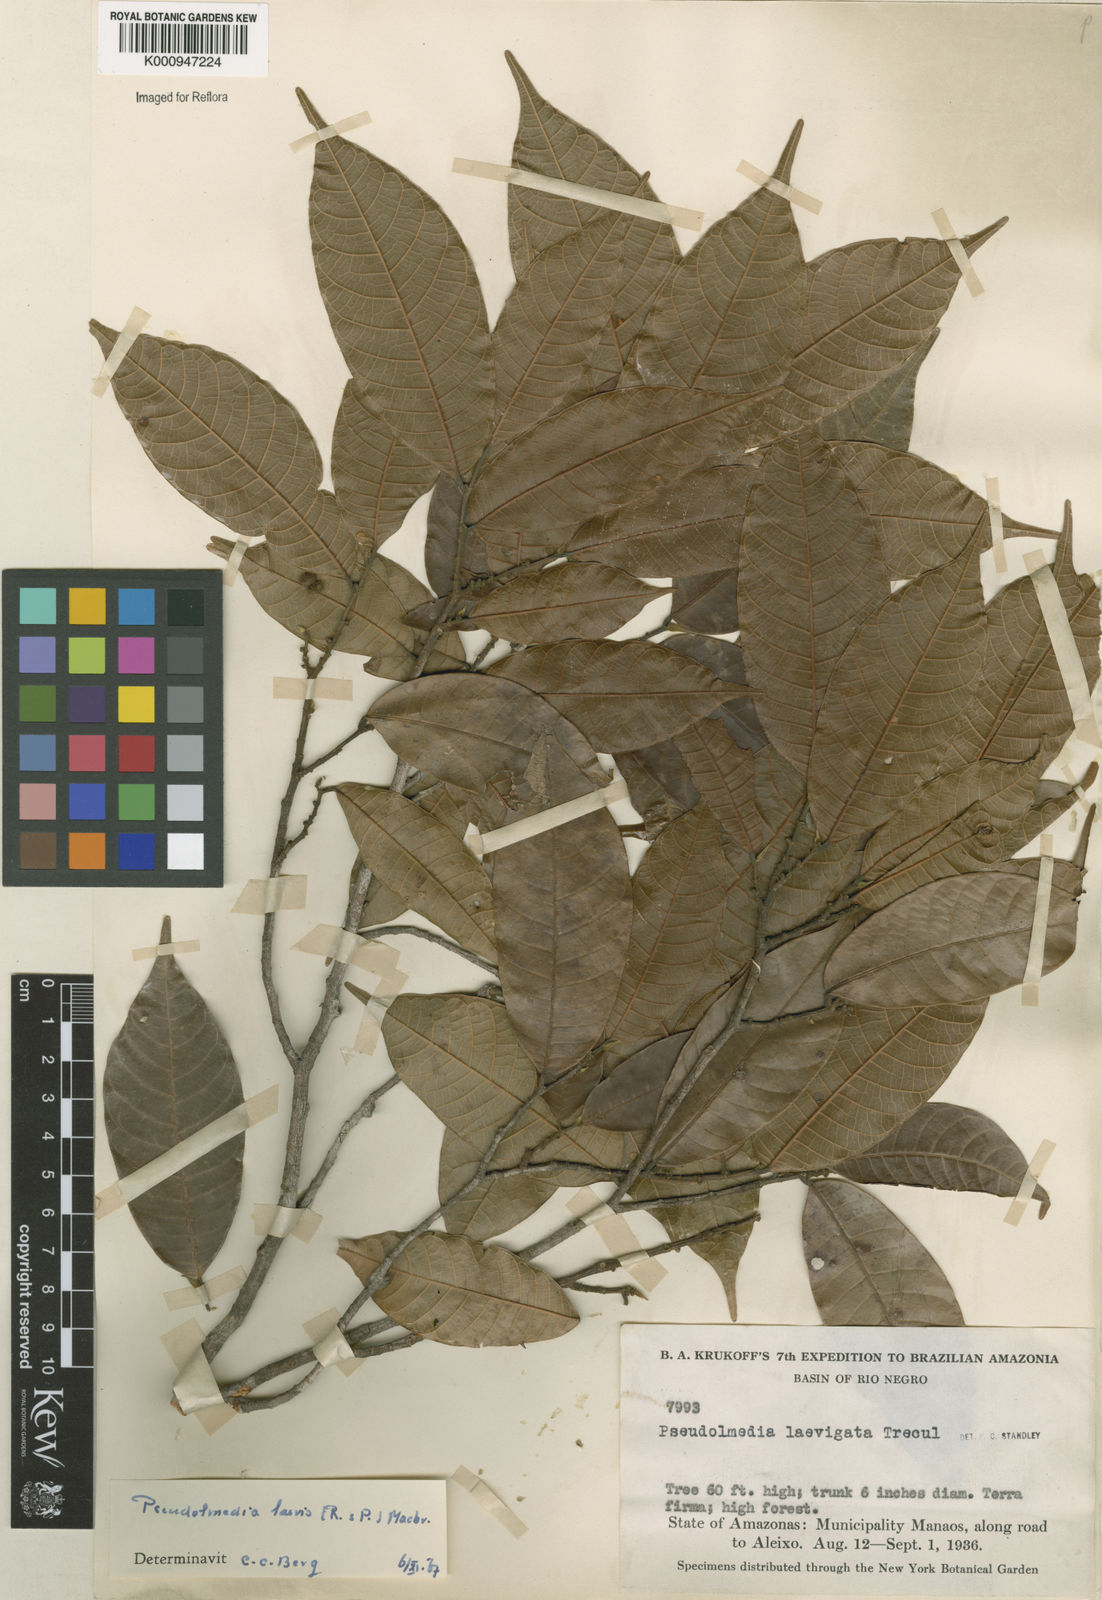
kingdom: Plantae
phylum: Tracheophyta
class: Magnoliopsida
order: Rosales
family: Moraceae
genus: Pseudolmedia
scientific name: Pseudolmedia laevis
